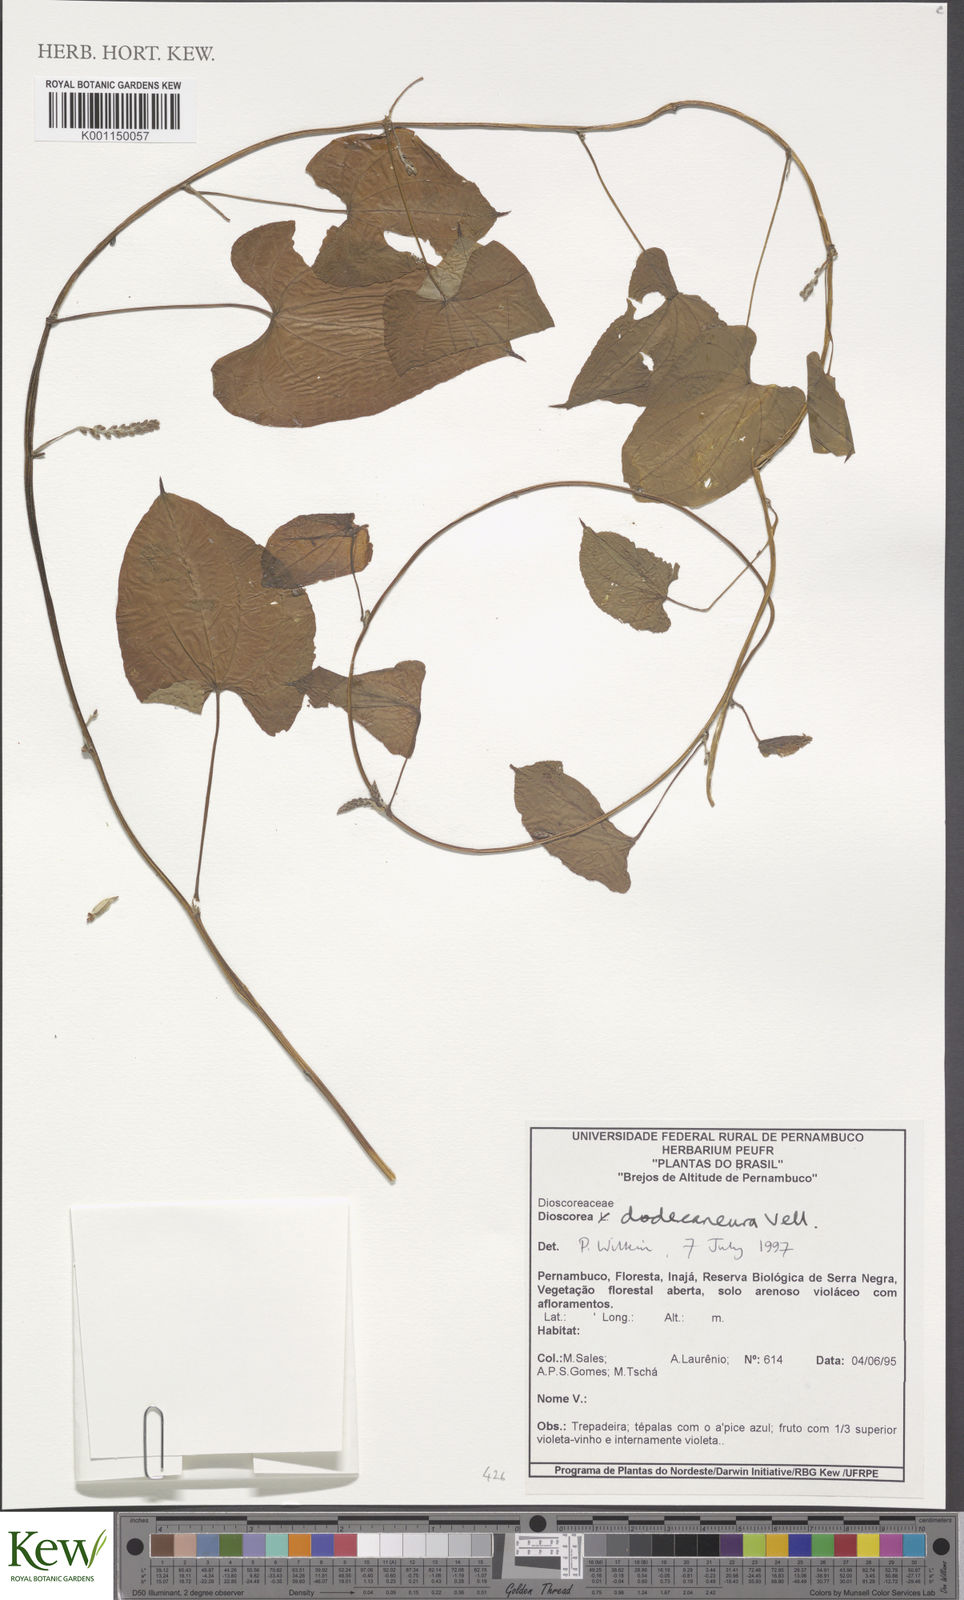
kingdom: Plantae
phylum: Tracheophyta
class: Liliopsida
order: Dioscoreales
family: Dioscoreaceae
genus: Dioscorea
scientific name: Dioscorea dodecaneura
